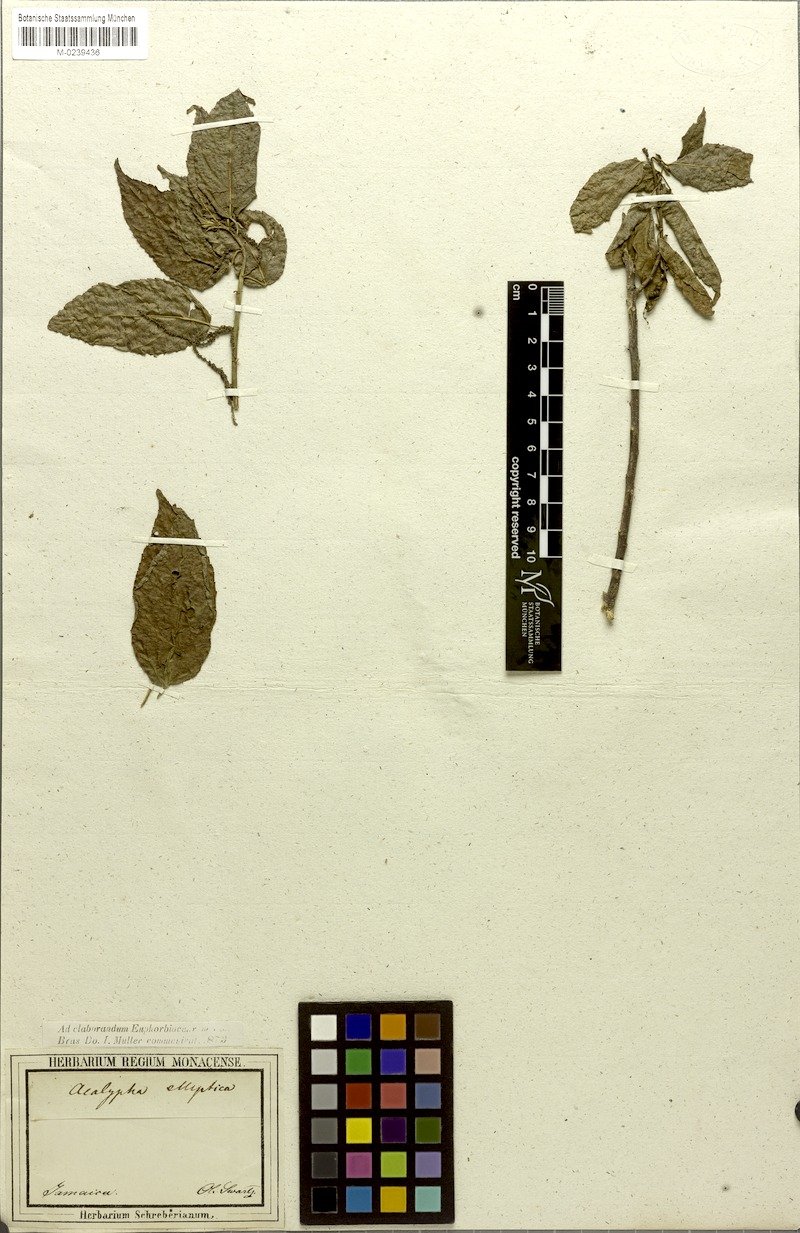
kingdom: Plantae
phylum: Tracheophyta
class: Magnoliopsida
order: Malpighiales
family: Euphorbiaceae
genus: Acalypha
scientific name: Acalypha elliptica
